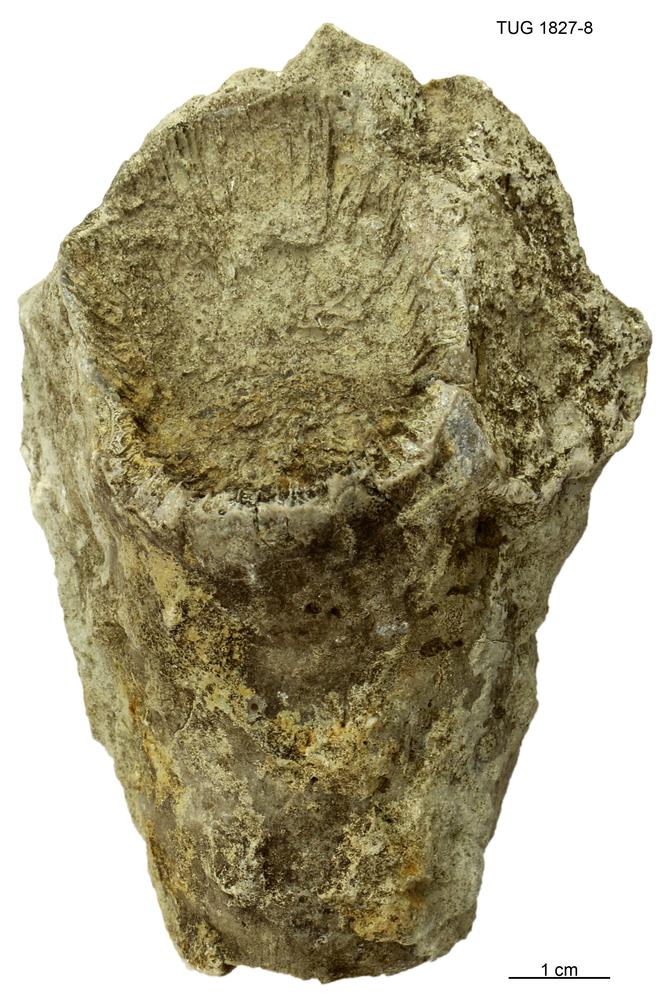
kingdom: Animalia
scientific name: Animalia
